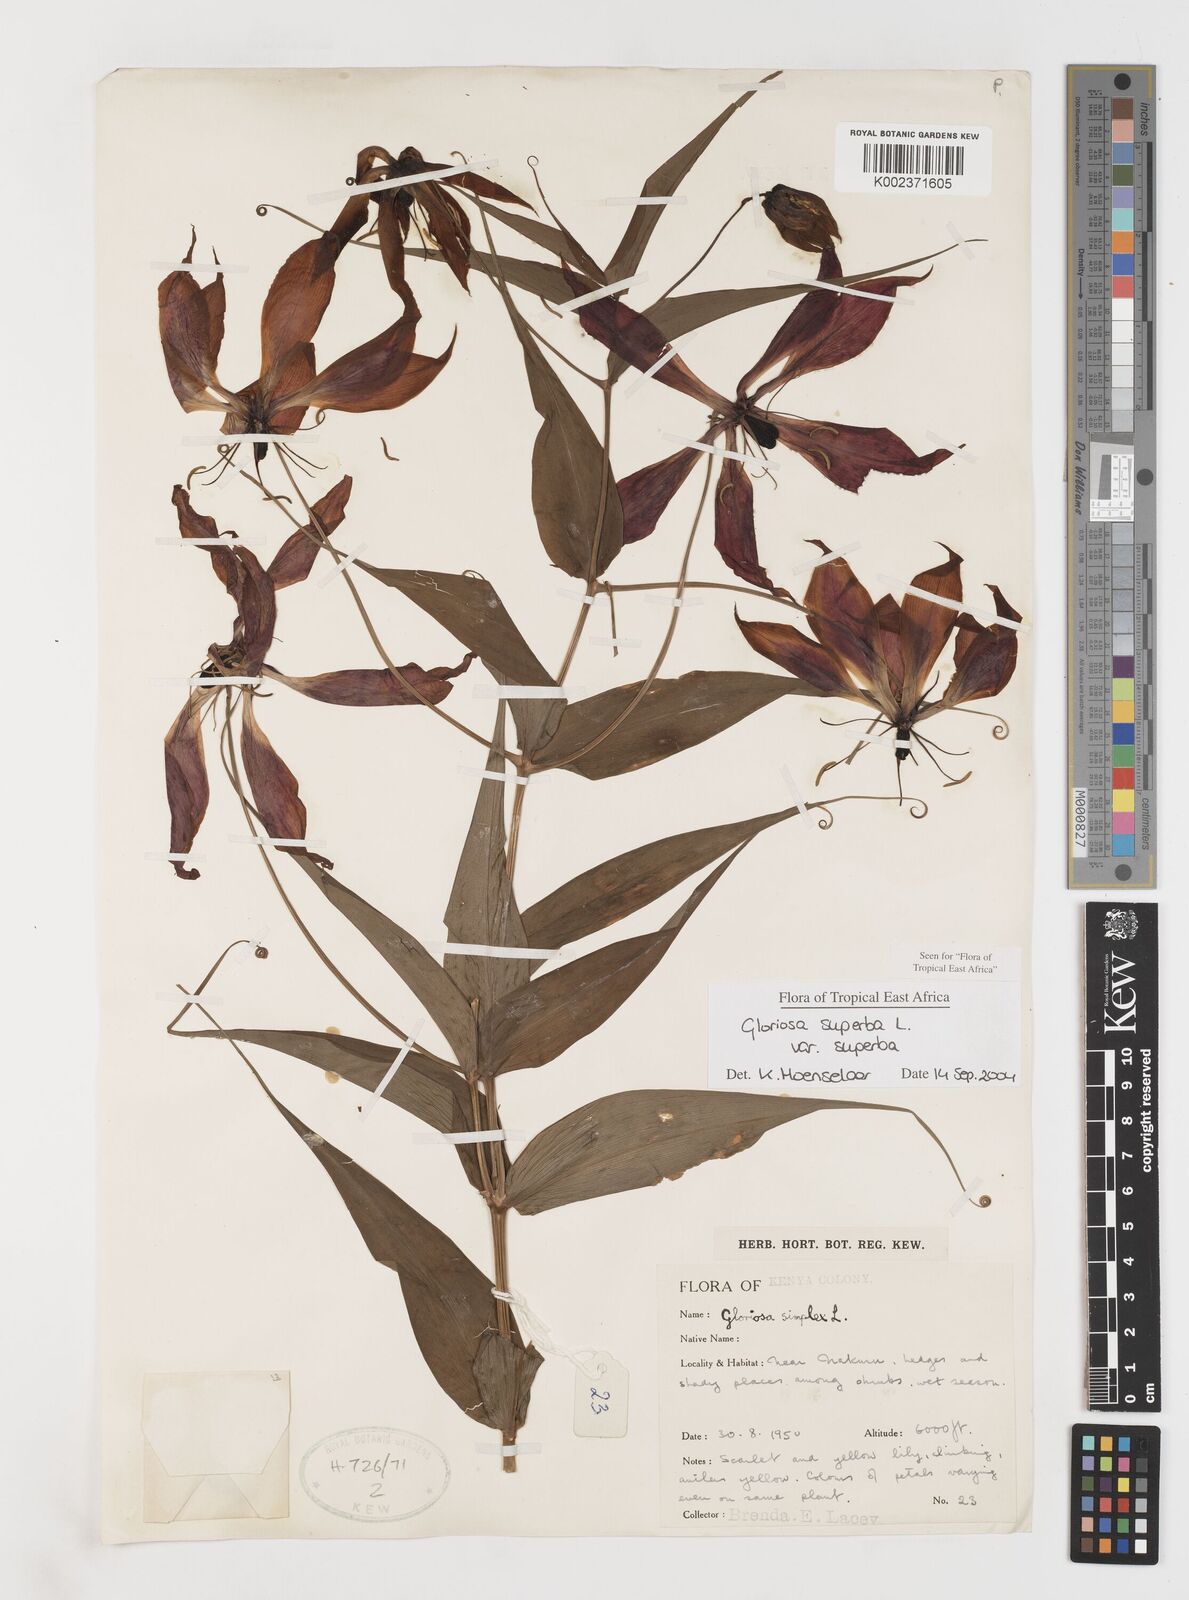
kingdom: Plantae
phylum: Tracheophyta
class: Liliopsida
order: Liliales
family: Colchicaceae
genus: Gloriosa
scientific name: Gloriosa simplex
